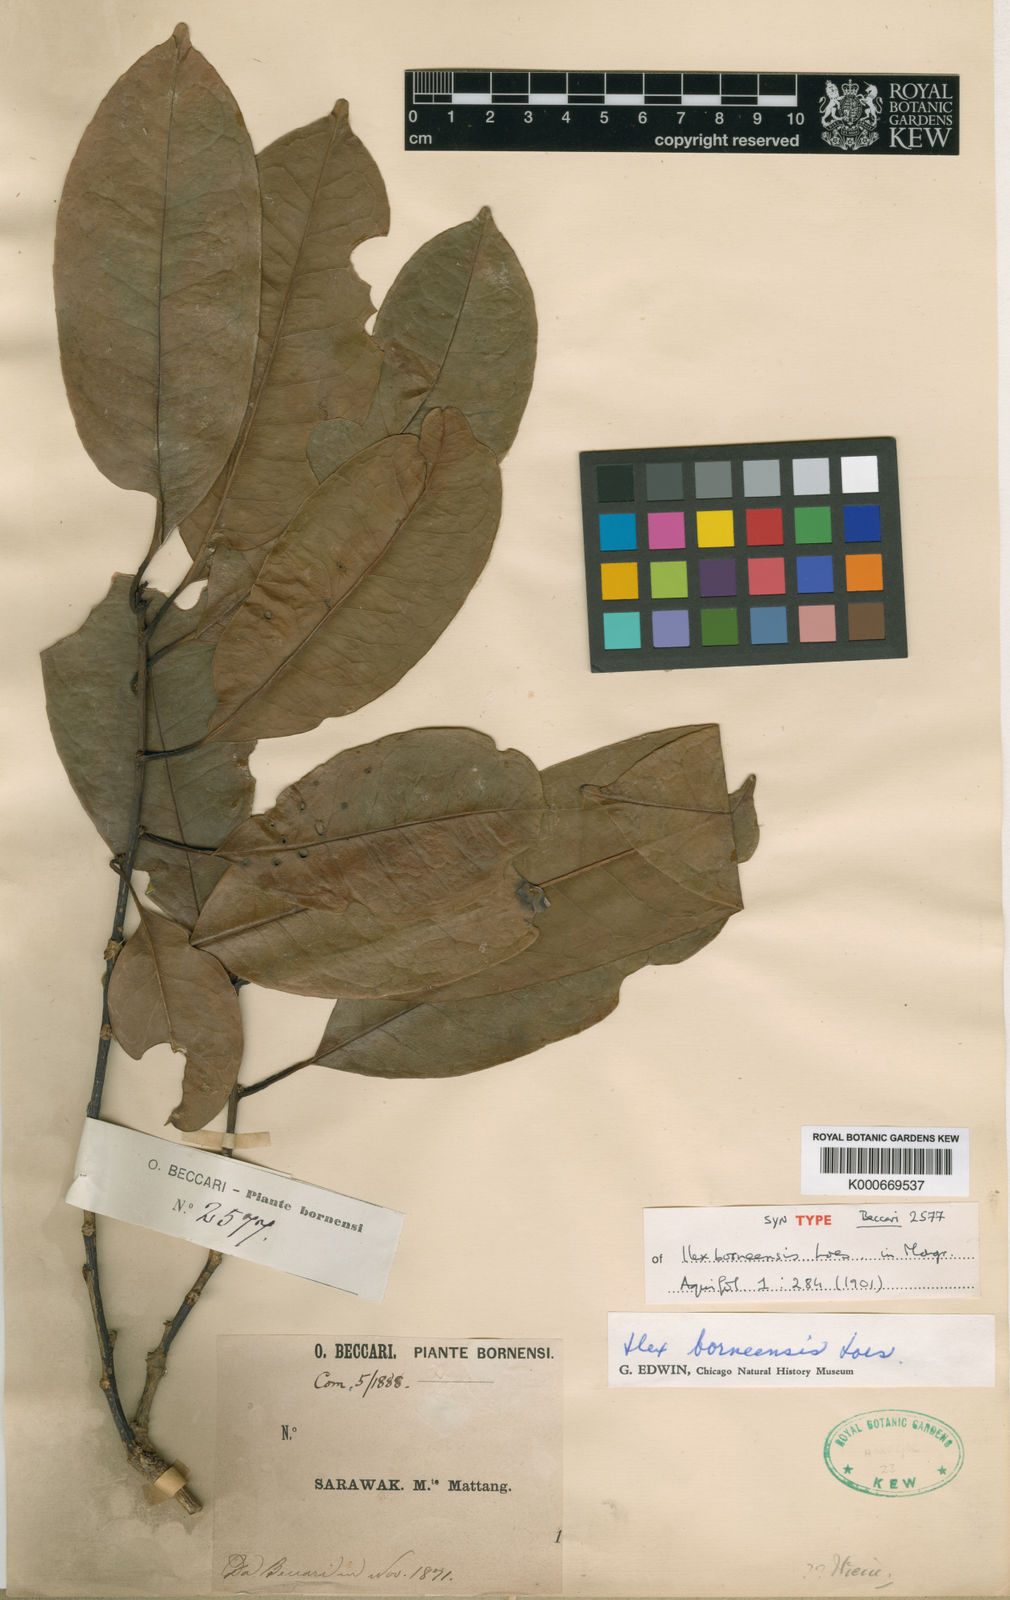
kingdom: Plantae
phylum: Tracheophyta
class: Magnoliopsida
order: Aquifoliales
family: Aquifoliaceae
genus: Ilex
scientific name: Ilex borneensis
